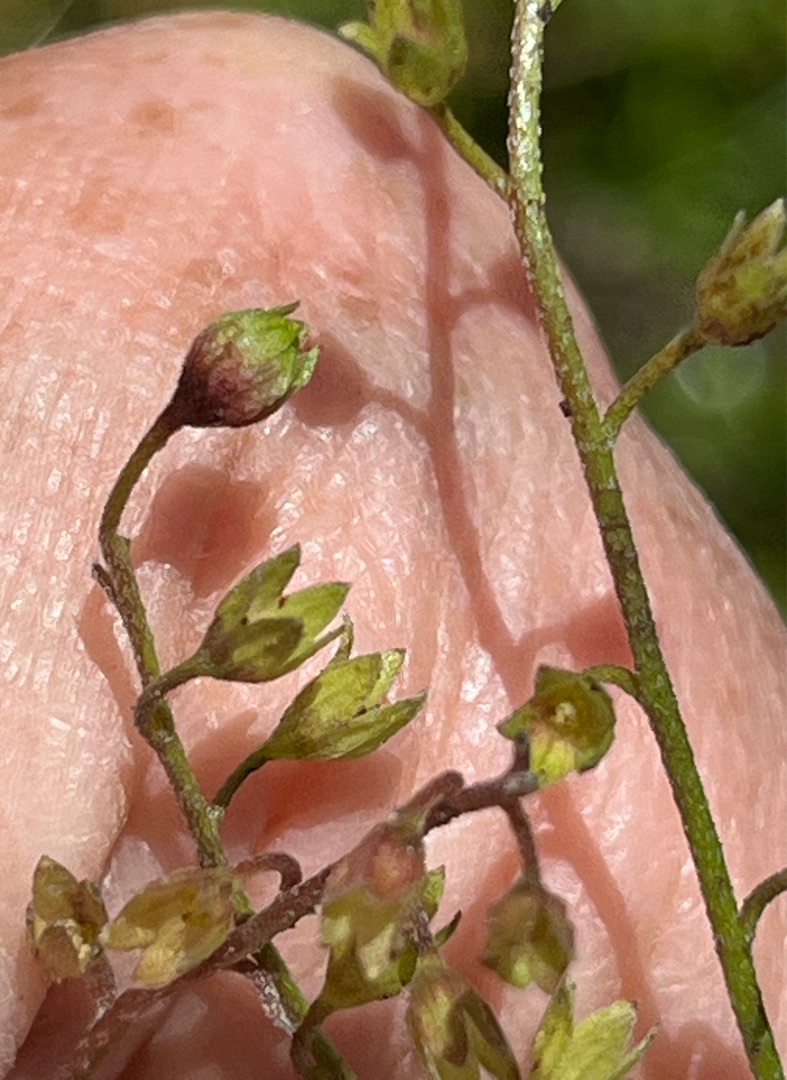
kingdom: Animalia
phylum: Arthropoda
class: Insecta
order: Diptera
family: Cecidomyiidae
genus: Dasineura
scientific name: Dasineura myosotidis
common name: Forglemmigejgalmyg
